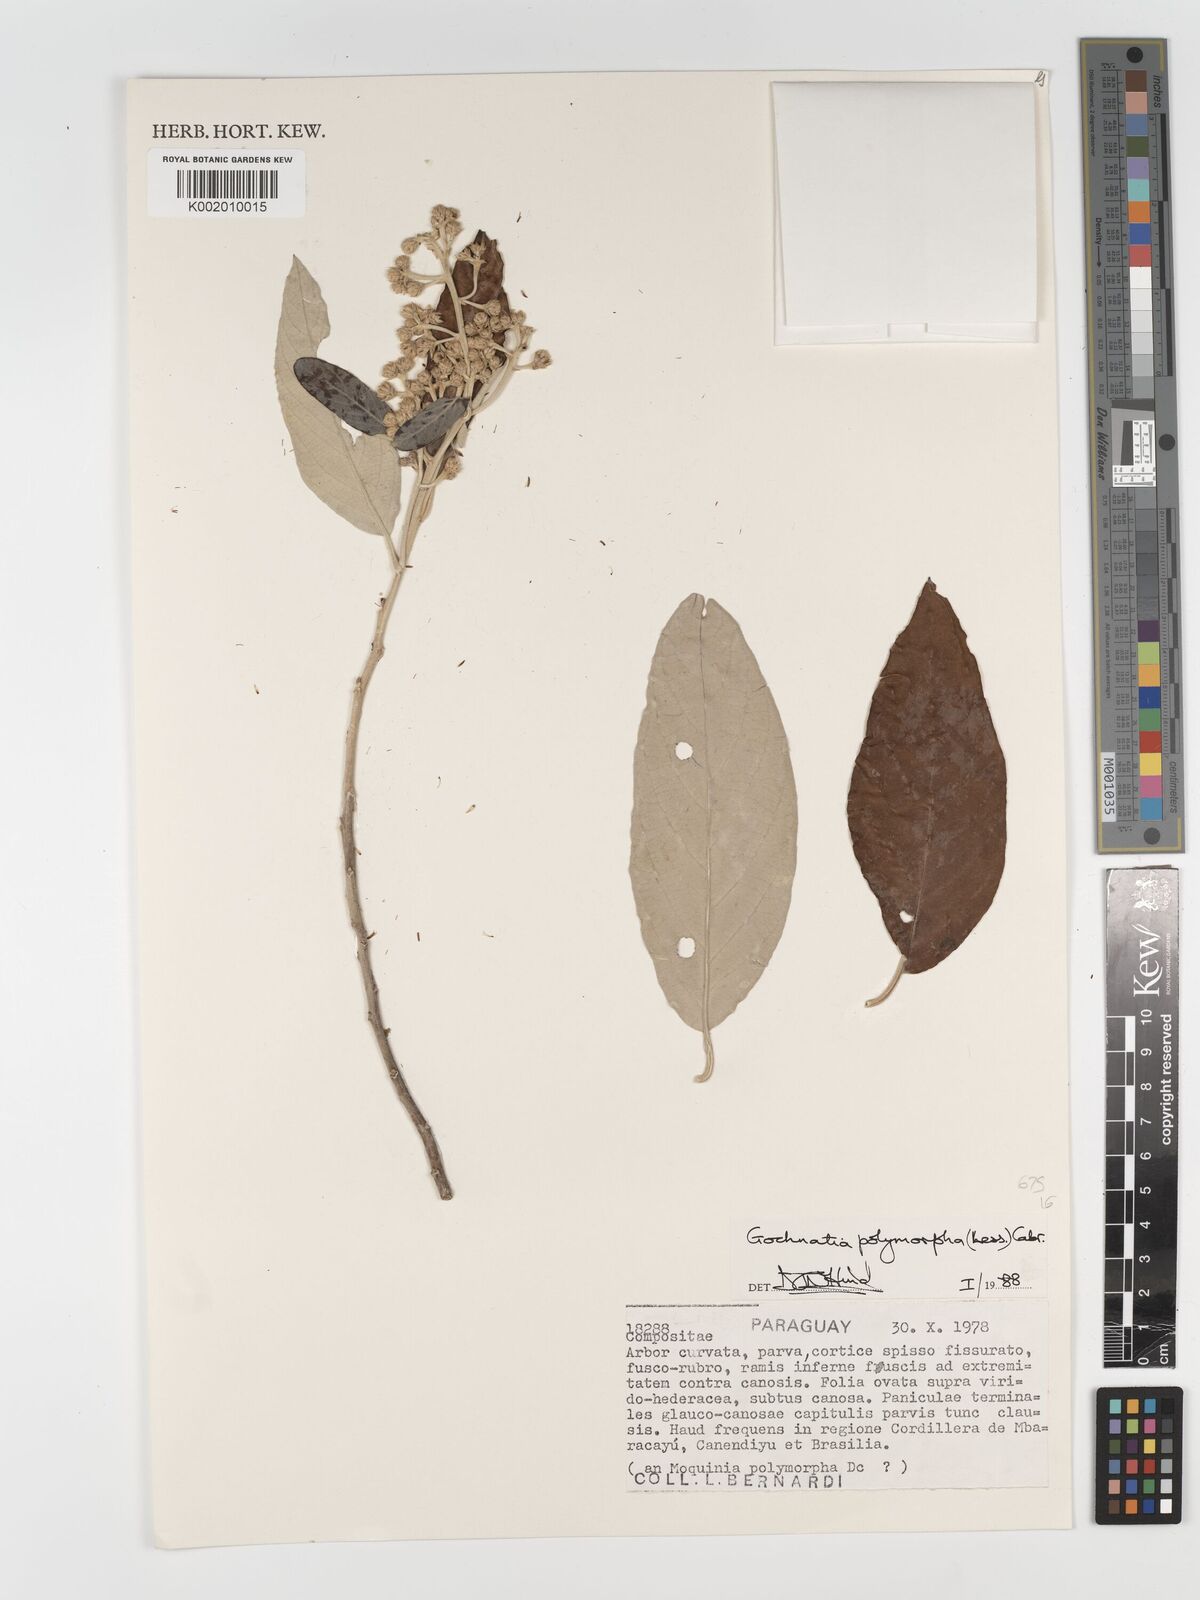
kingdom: Plantae
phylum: Tracheophyta
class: Magnoliopsida
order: Asterales
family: Asteraceae
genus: Moquiniastrum
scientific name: Moquiniastrum polymorphum
